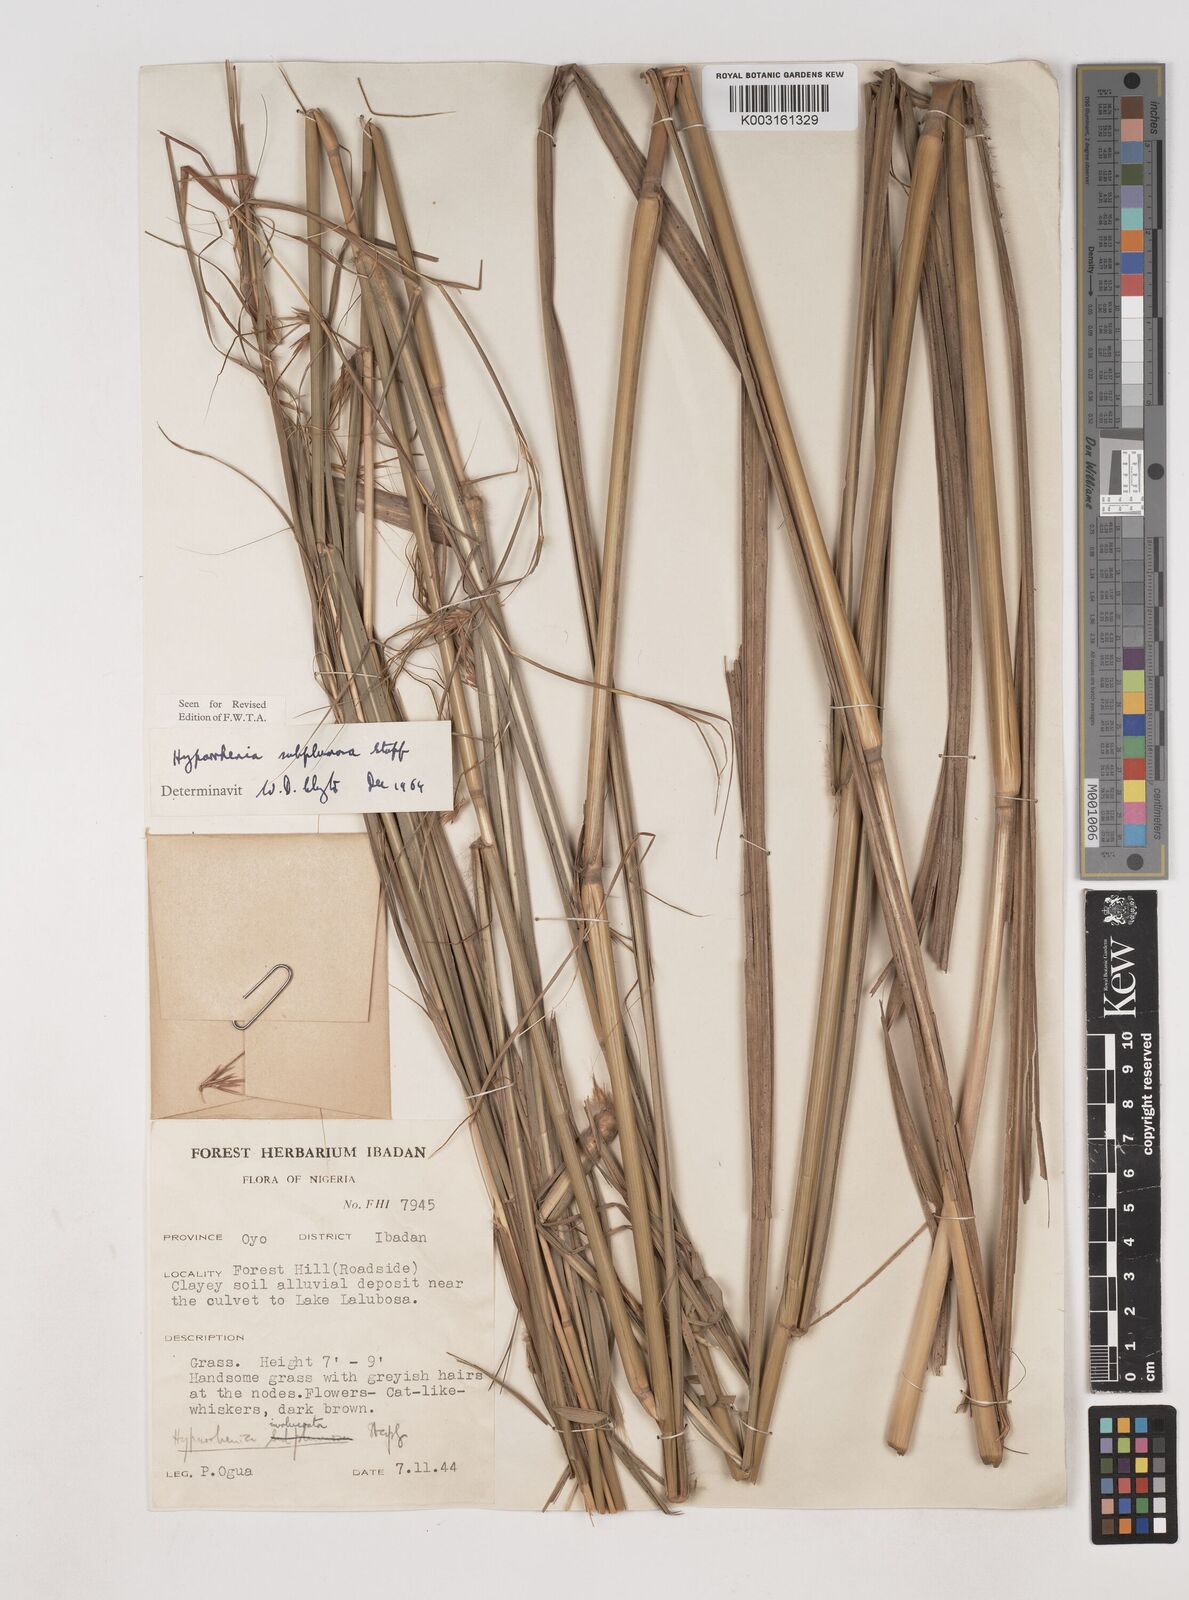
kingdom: Plantae
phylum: Tracheophyta
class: Liliopsida
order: Poales
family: Poaceae
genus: Hyparrhenia
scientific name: Hyparrhenia subplumosa
